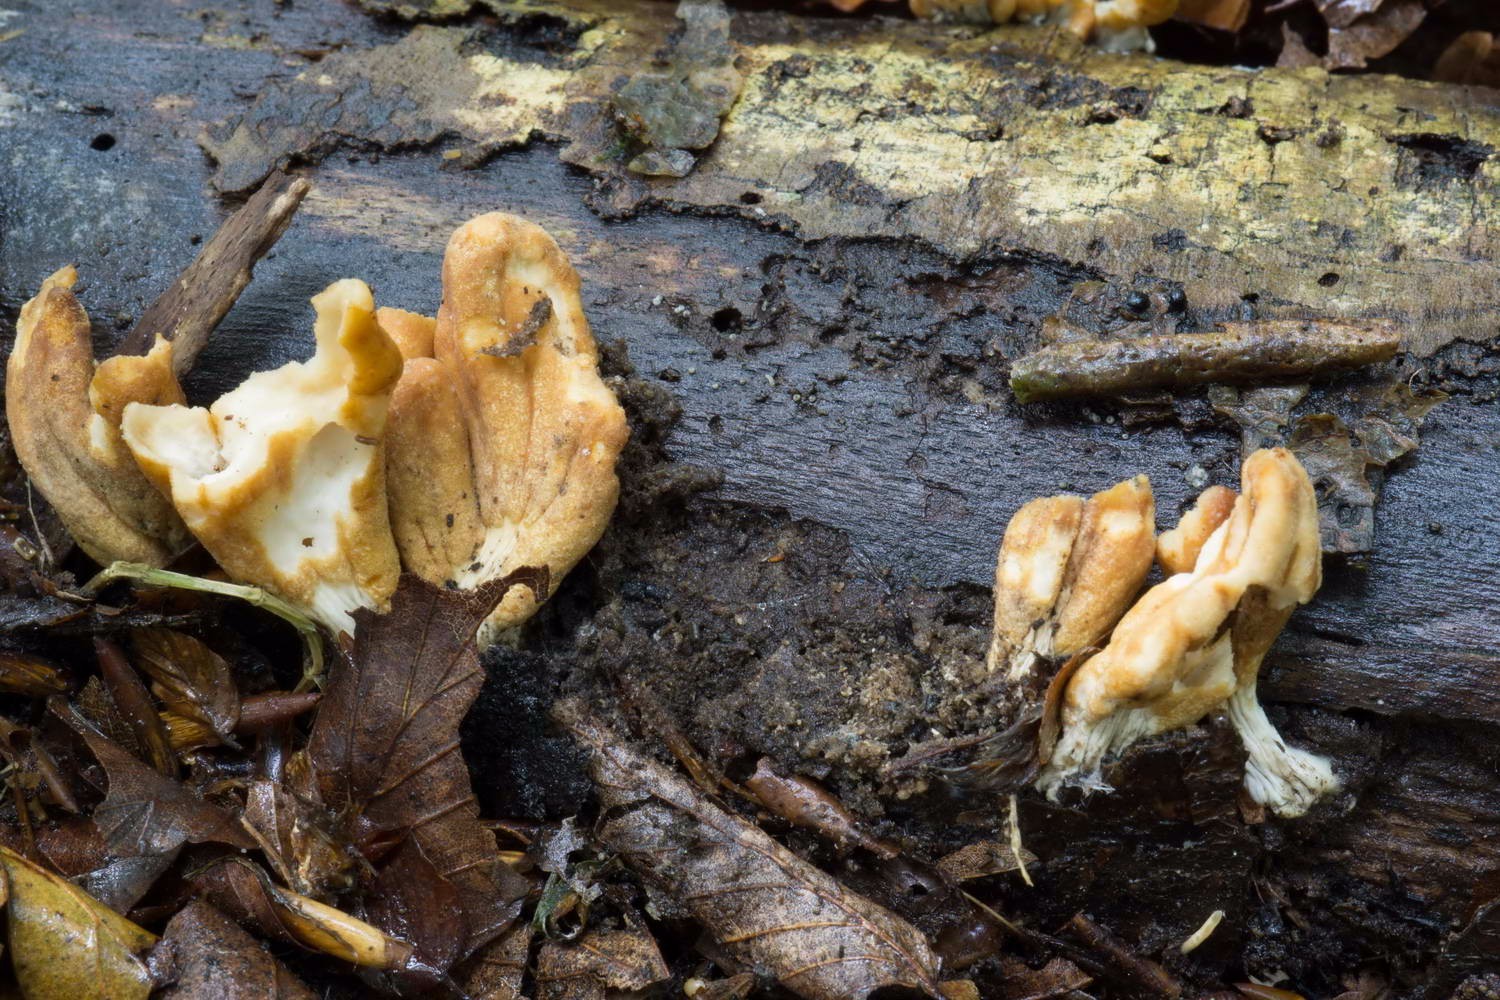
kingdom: Fungi
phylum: Ascomycota
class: Sordariomycetes
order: Hypocreales
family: Hypocreaceae
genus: Trichoderma
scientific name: Trichoderma alutaceum
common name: gevir-kødkerne
